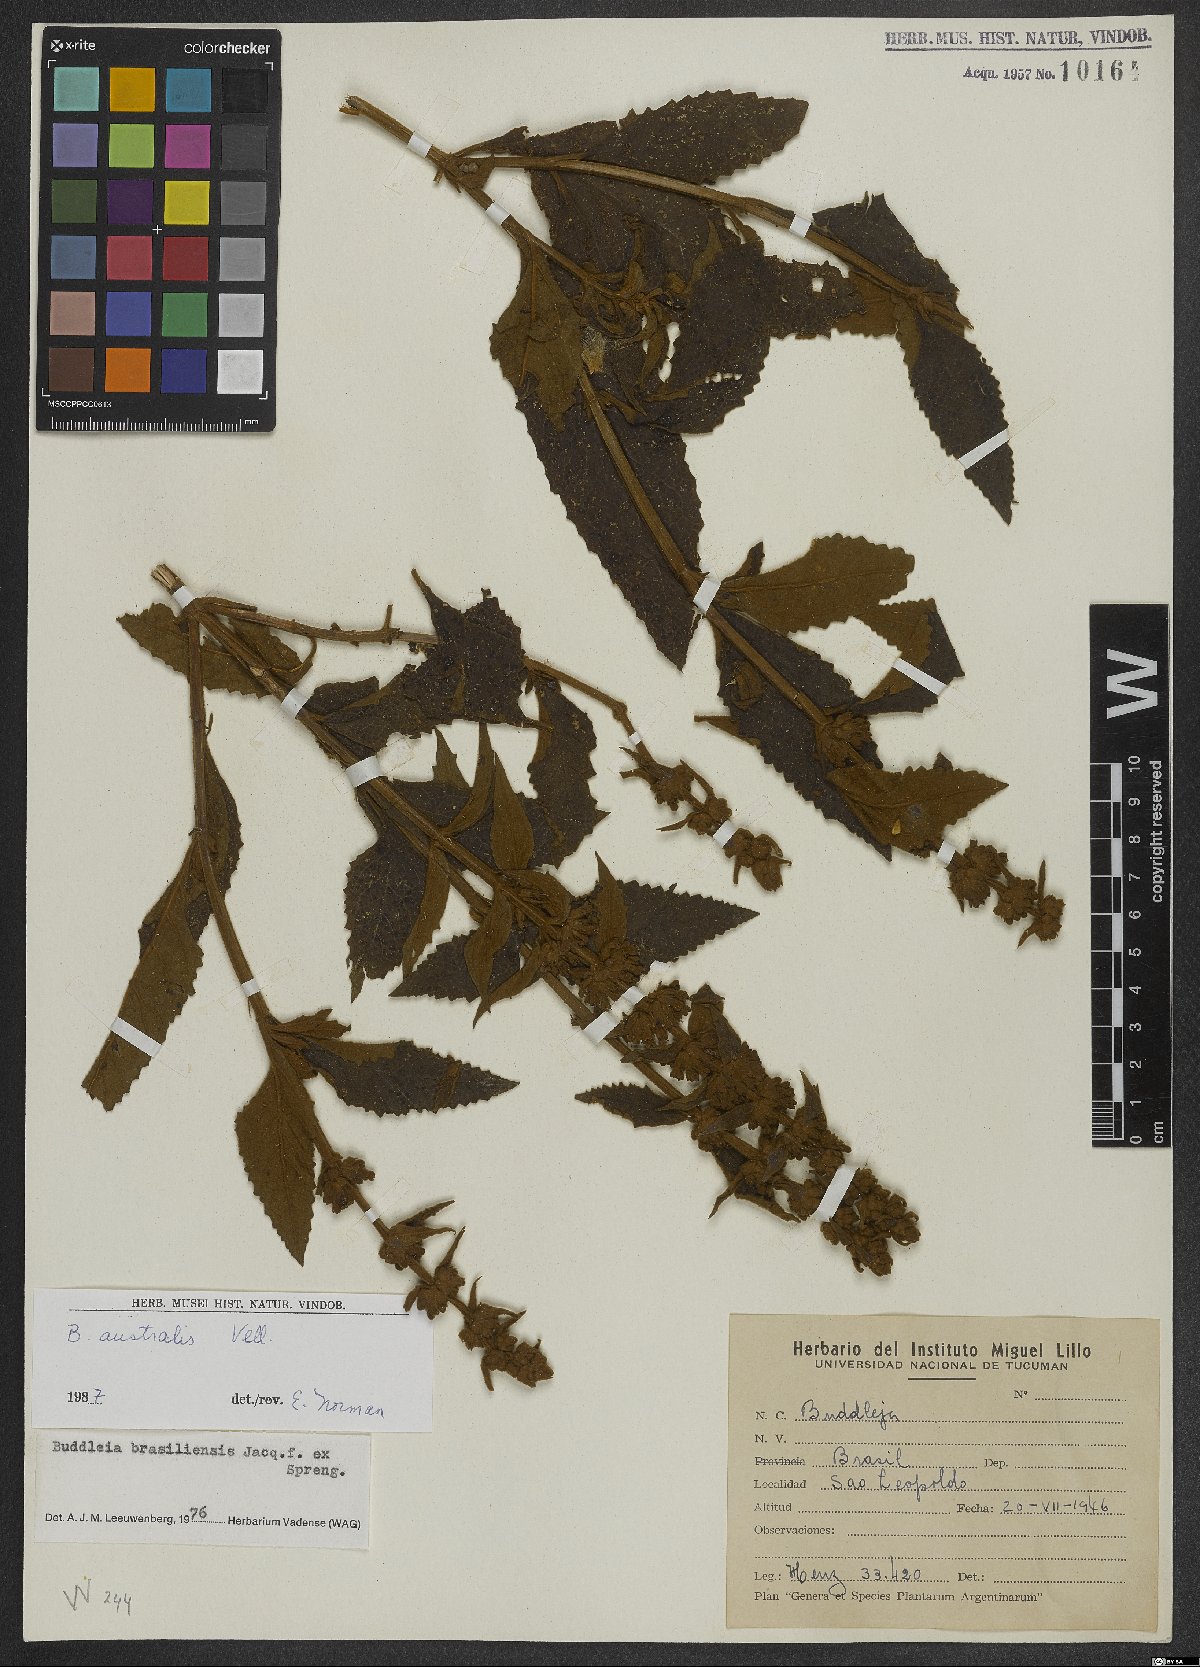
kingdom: Plantae
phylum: Tracheophyta
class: Magnoliopsida
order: Lamiales
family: Scrophulariaceae
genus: Buddleja
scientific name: Buddleja stachyoides
